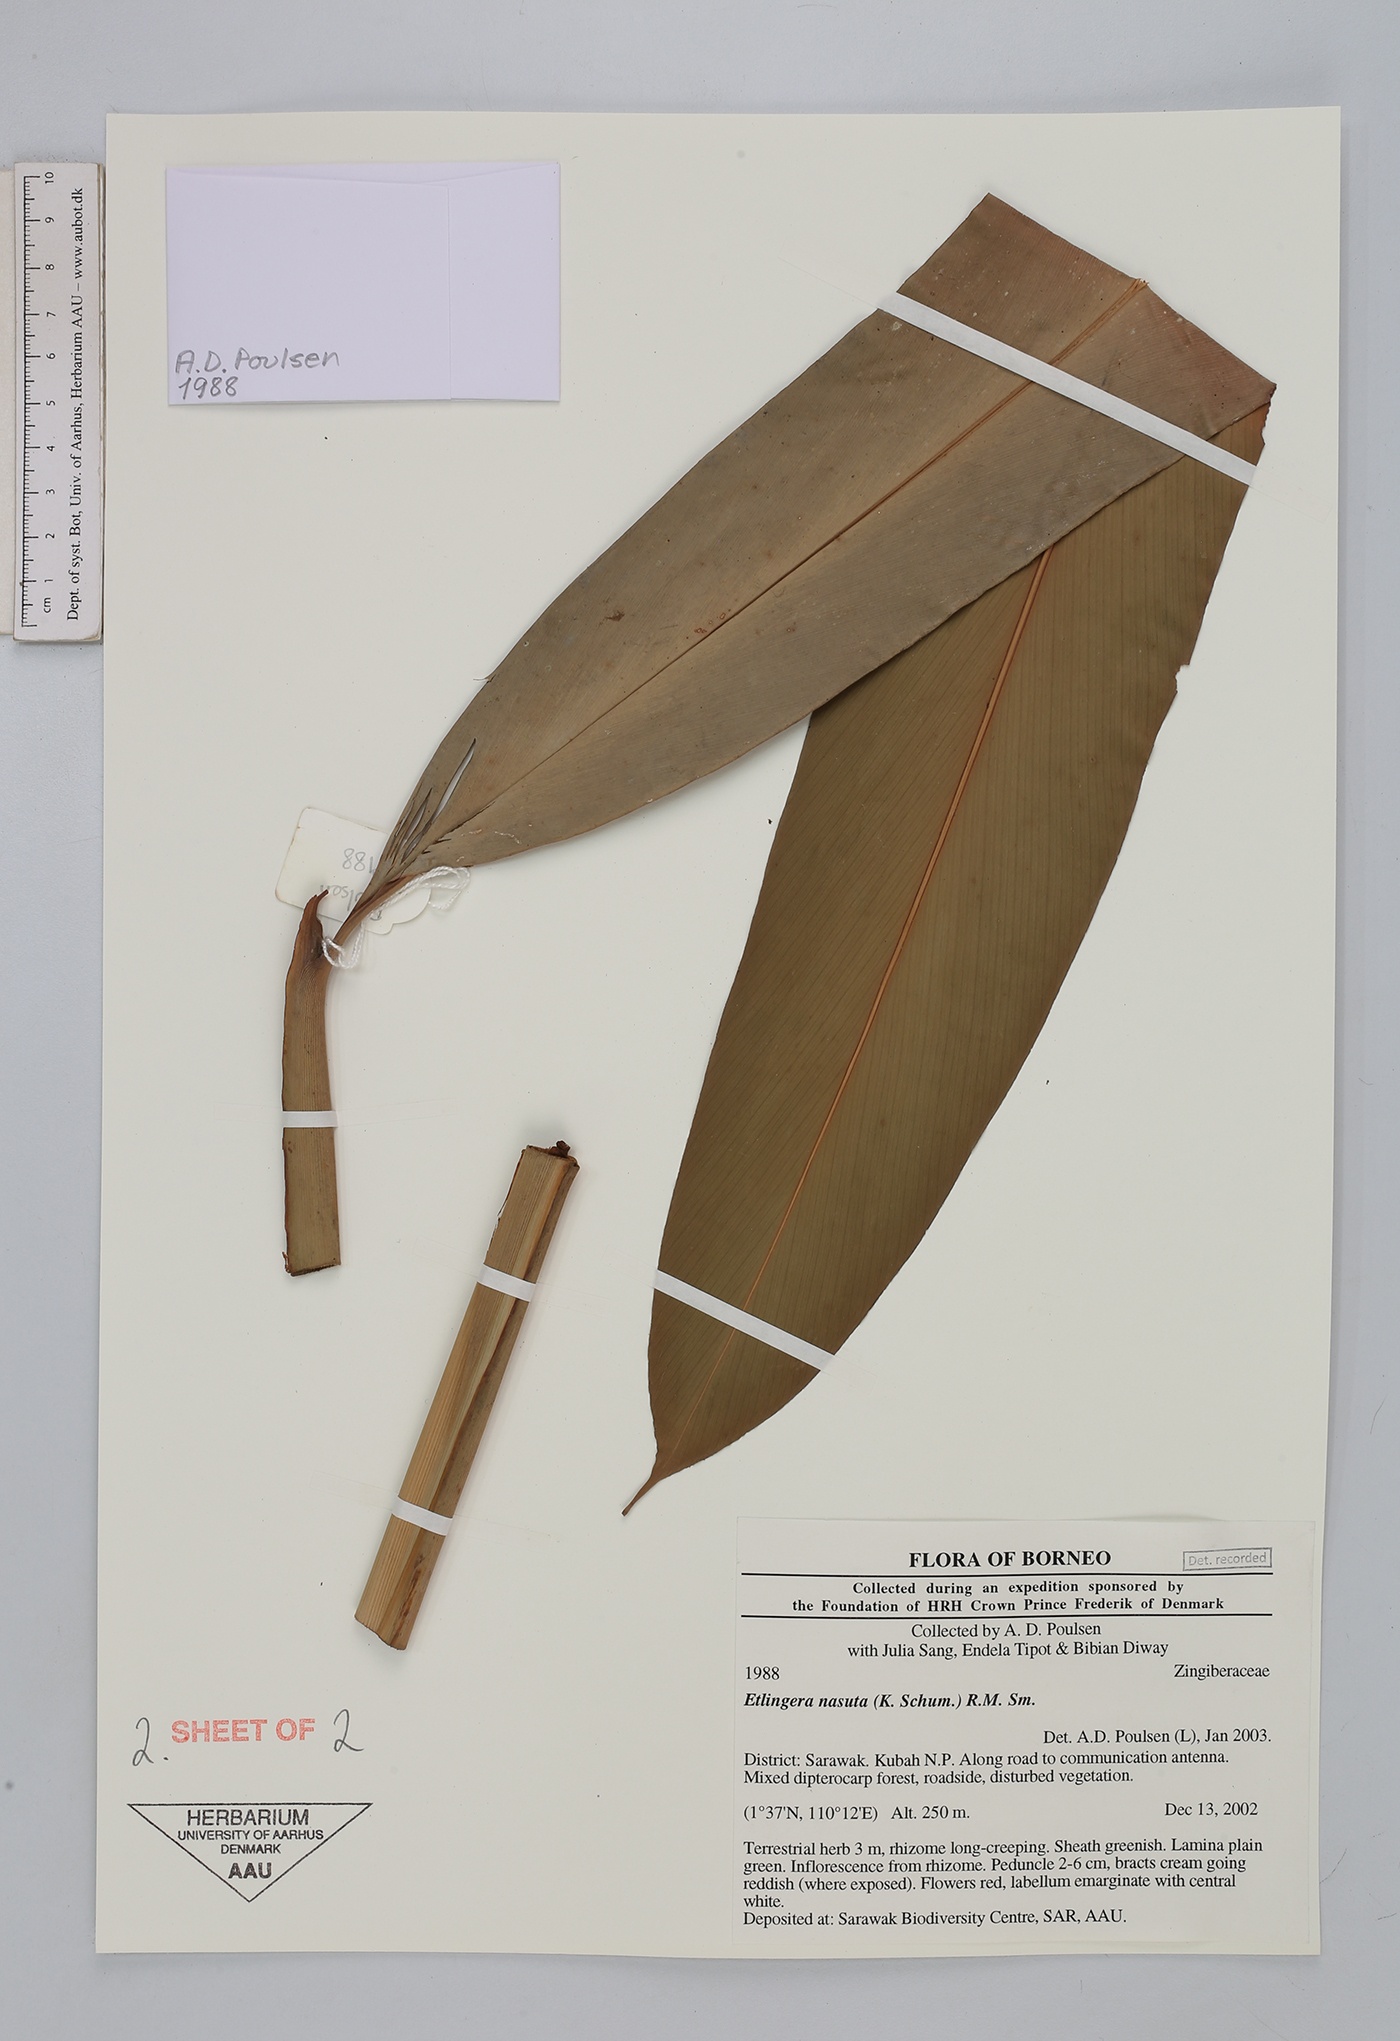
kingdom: Plantae
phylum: Tracheophyta
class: Liliopsida
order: Zingiberales
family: Zingiberaceae
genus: Etlingera
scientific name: Etlingera nasuta
